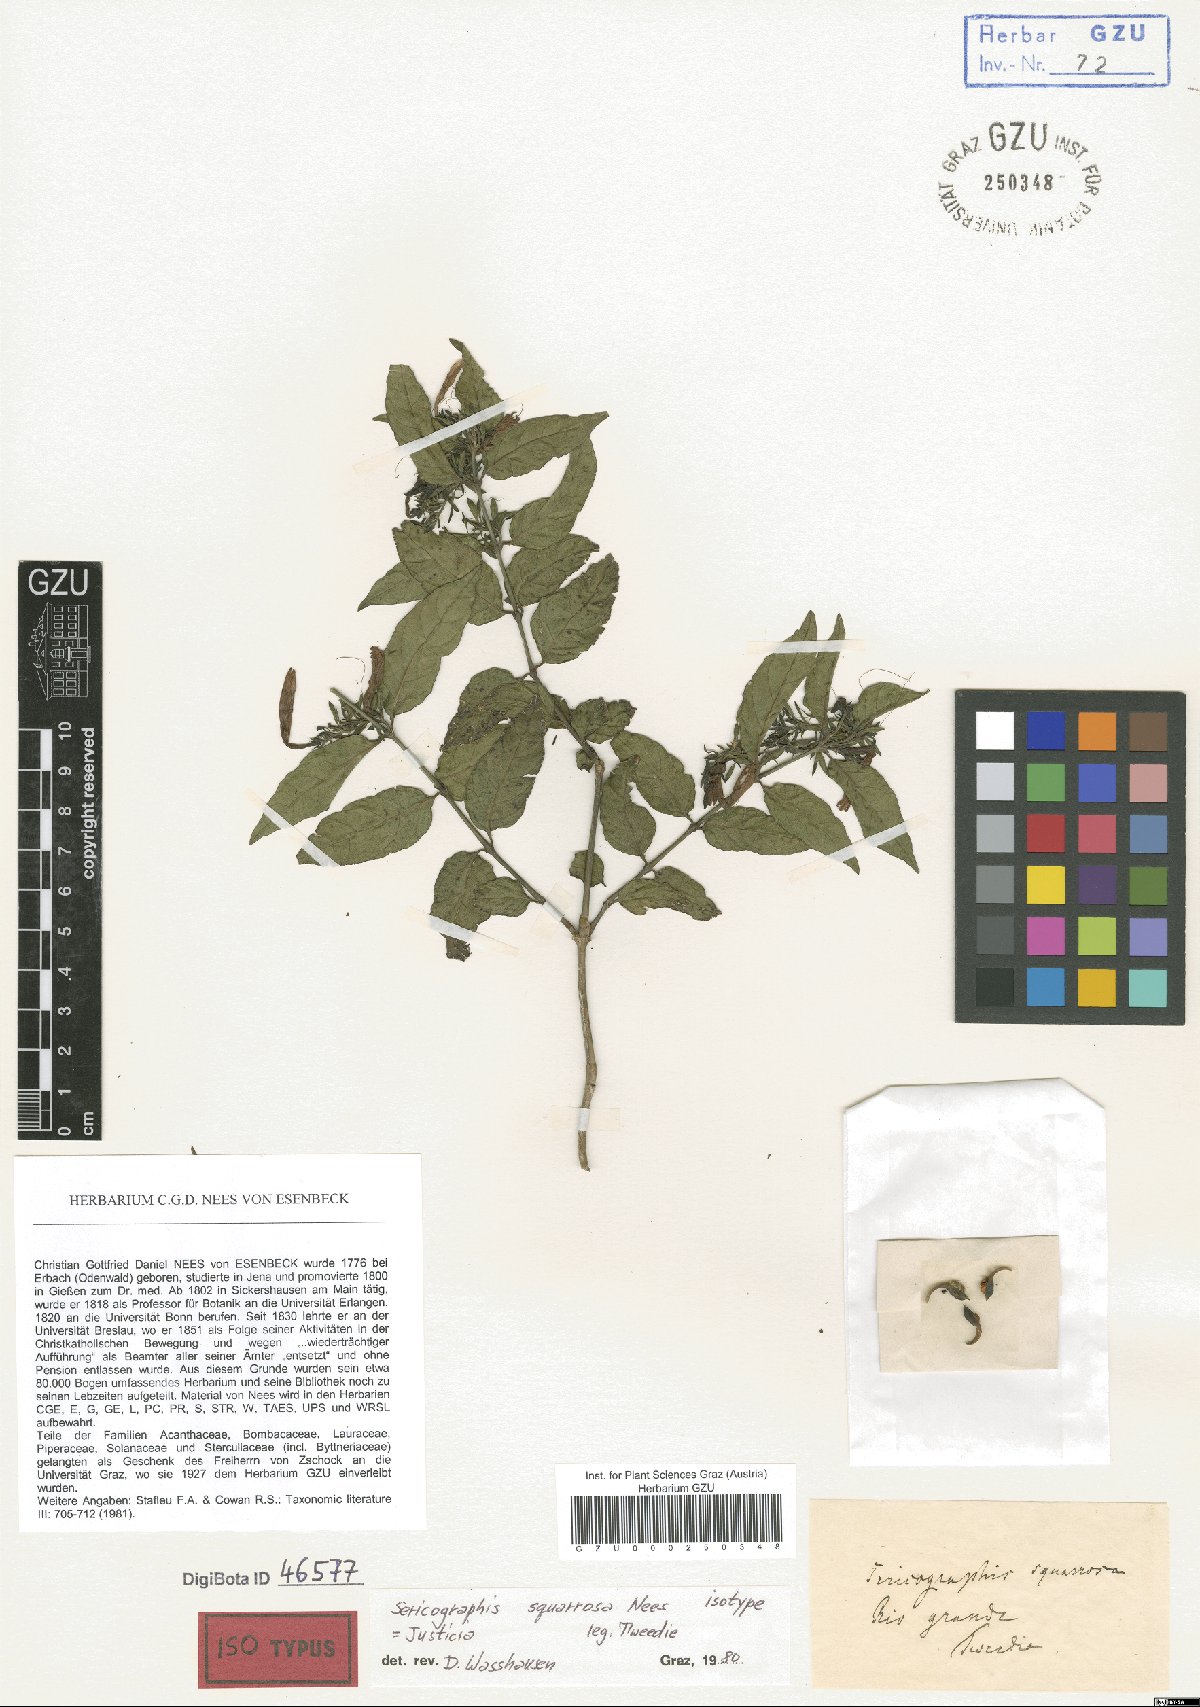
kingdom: Plantae
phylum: Tracheophyta
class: Magnoliopsida
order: Lamiales
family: Acanthaceae
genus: Justicia
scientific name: Justicia brasiliana
